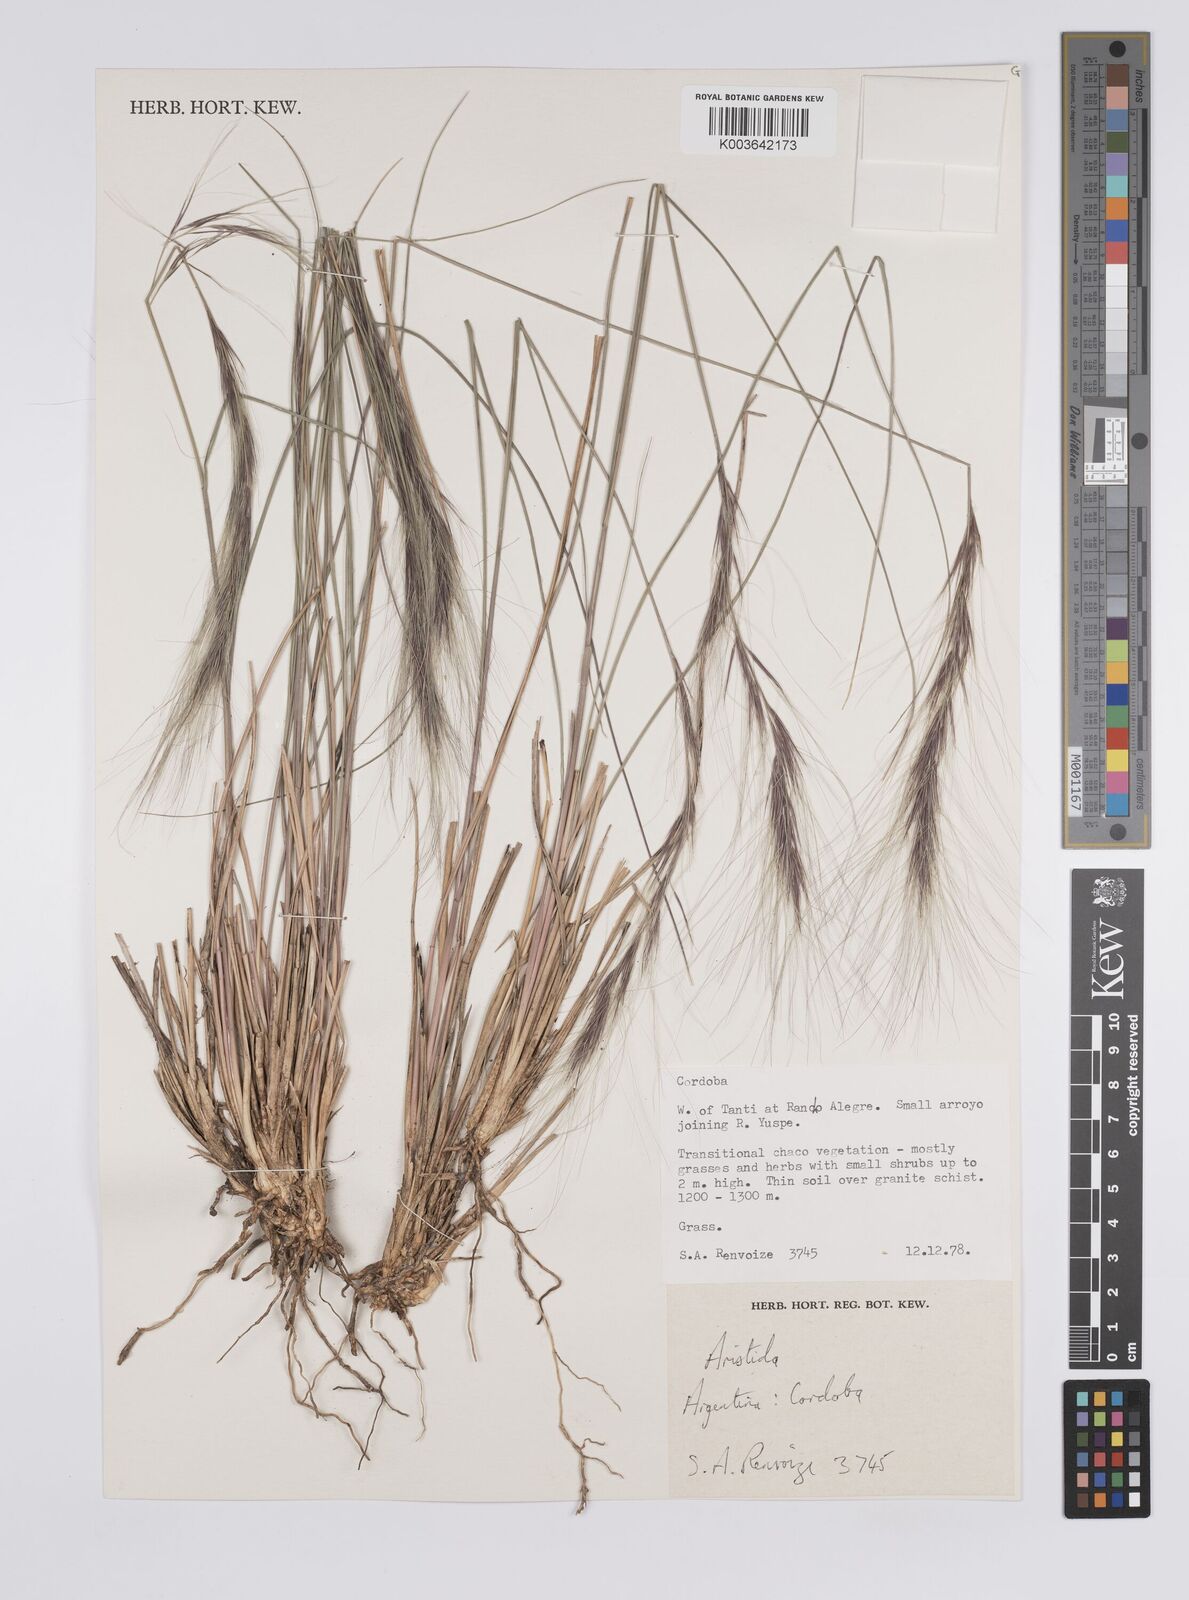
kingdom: Plantae
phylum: Tracheophyta
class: Liliopsida
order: Poales
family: Poaceae
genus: Aristida
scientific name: Aristida
